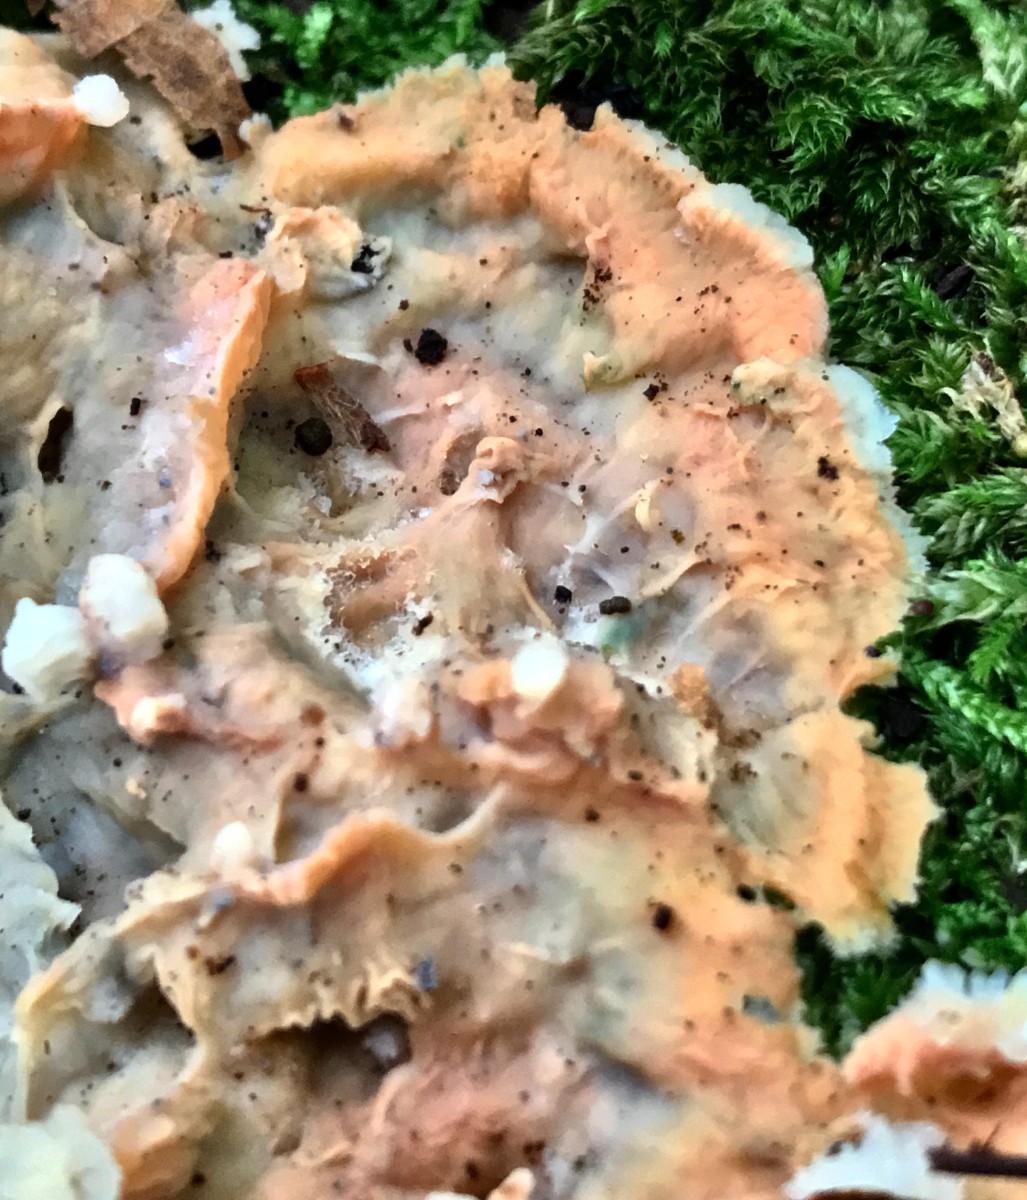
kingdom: Fungi
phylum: Basidiomycota
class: Agaricomycetes
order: Polyporales
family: Meruliaceae
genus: Phlebia
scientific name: Phlebia tremellosa
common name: bævrende åresvamp
